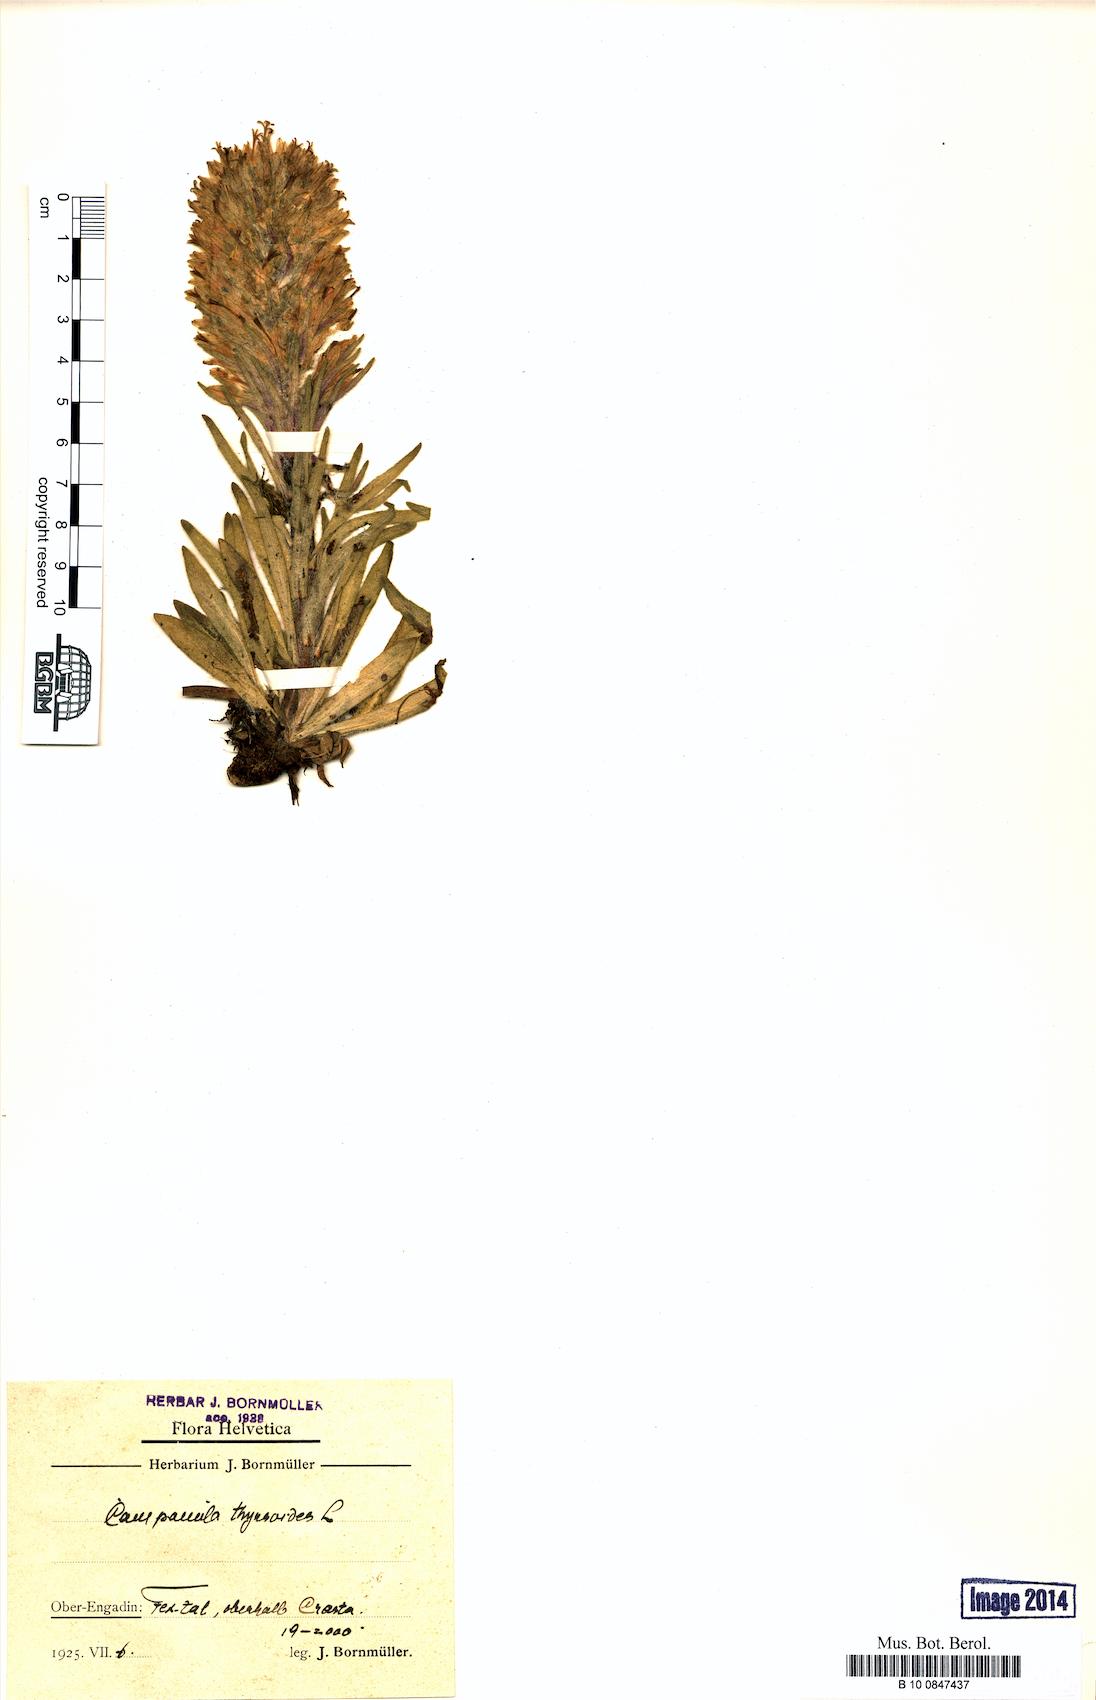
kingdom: Plantae
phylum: Tracheophyta
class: Magnoliopsida
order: Asterales
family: Campanulaceae
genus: Campanula
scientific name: Campanula thyrsoides
